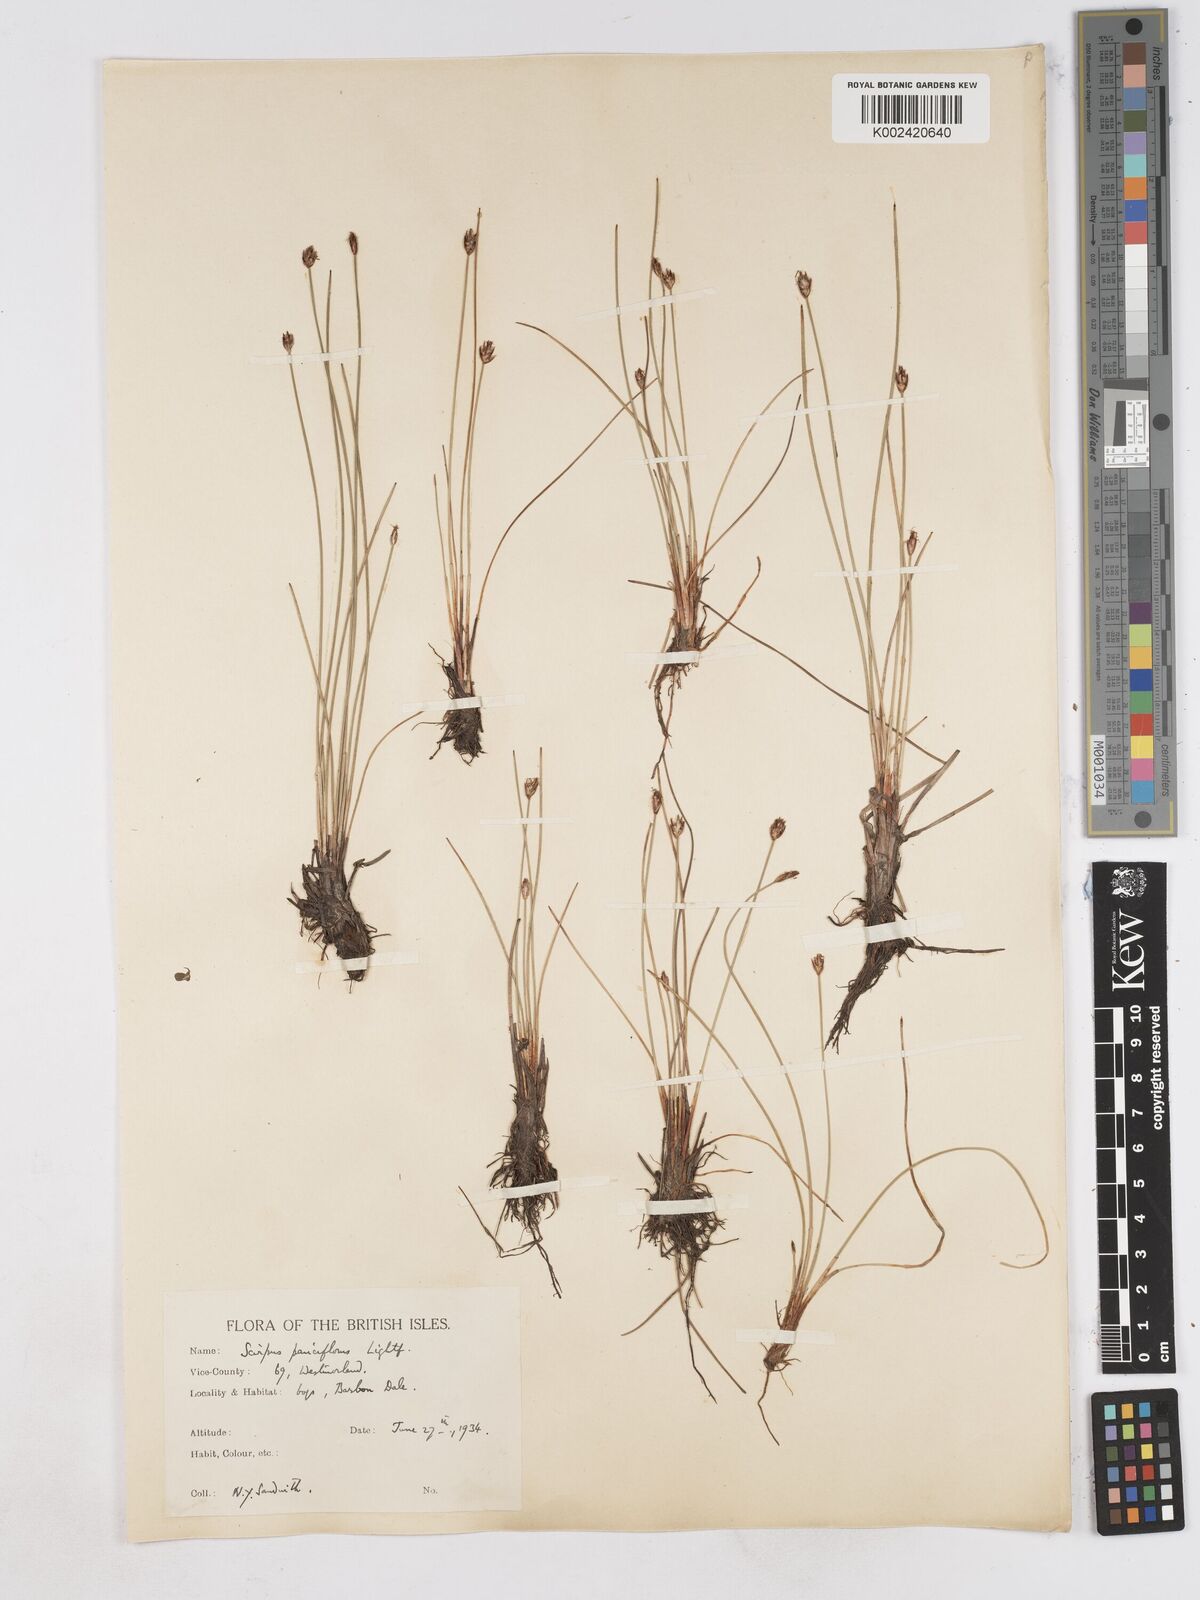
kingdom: Plantae
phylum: Tracheophyta
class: Liliopsida
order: Poales
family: Cyperaceae
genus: Eleocharis
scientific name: Eleocharis quinqueflora
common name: Few-flowered spike-rush
